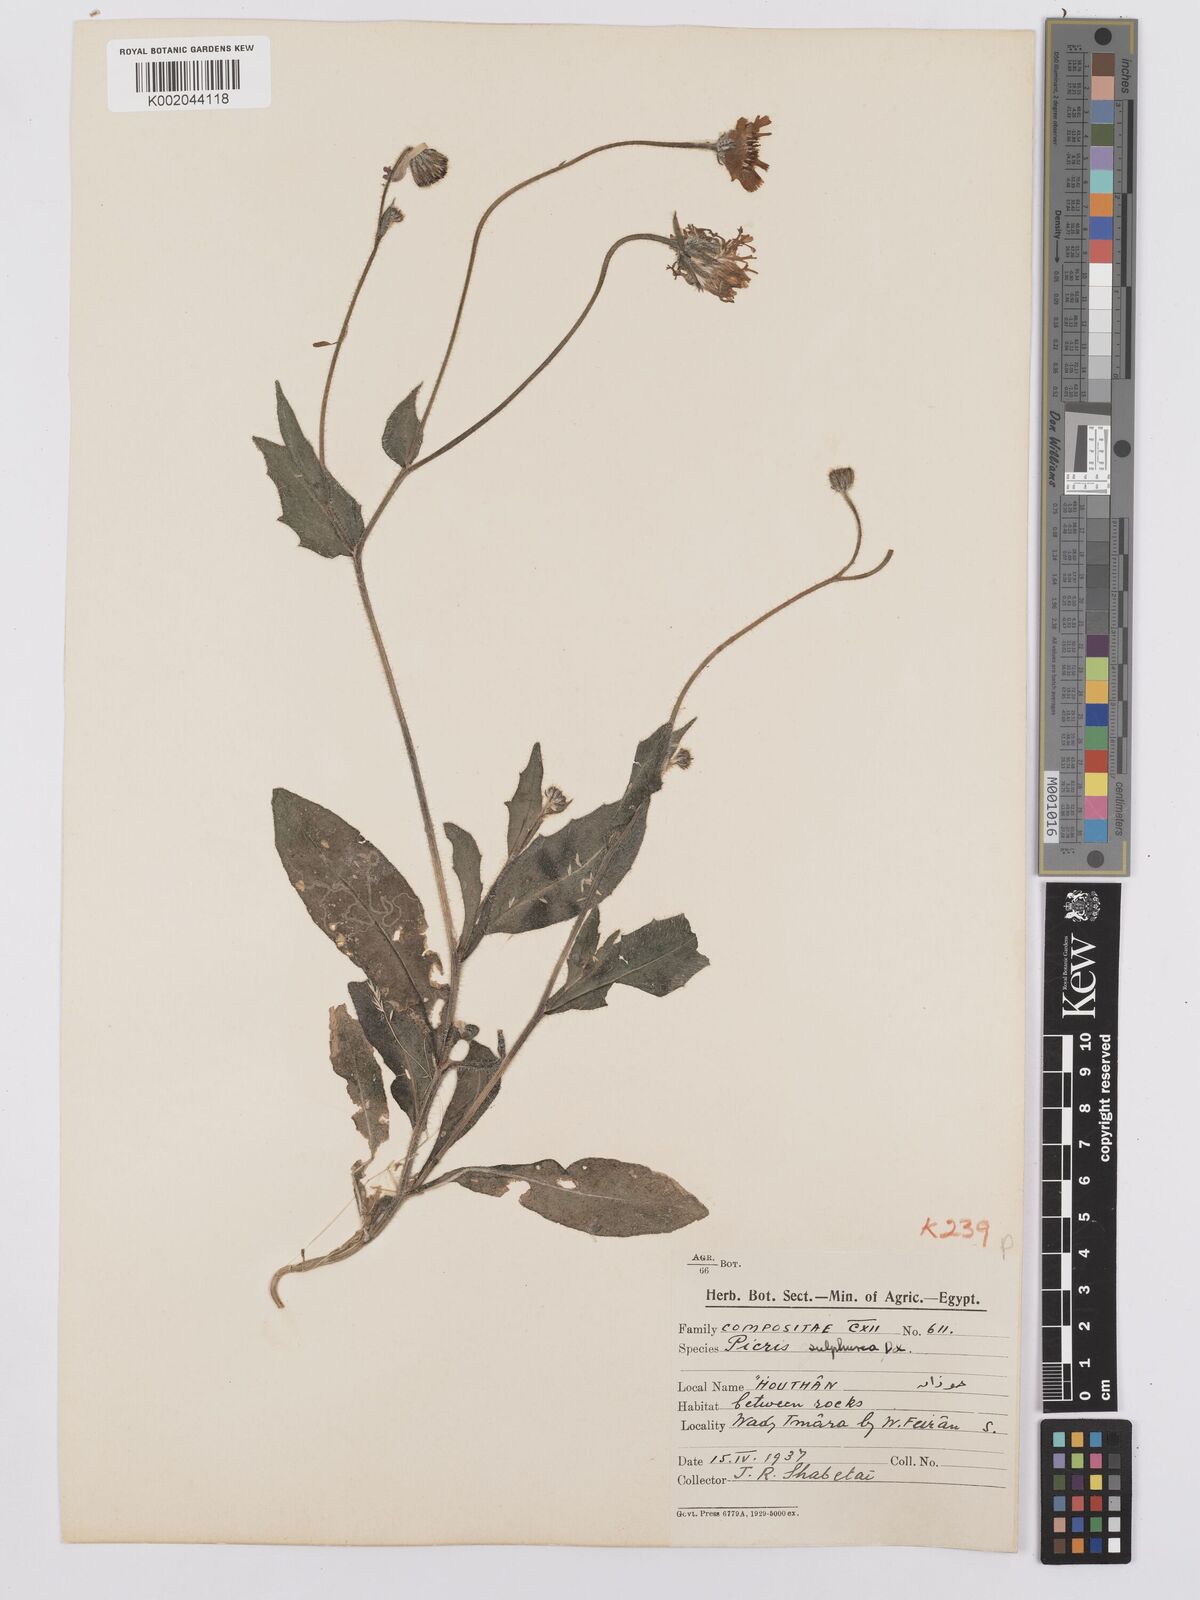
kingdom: Plantae
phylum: Tracheophyta
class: Magnoliopsida
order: Asterales
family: Asteraceae
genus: Picris
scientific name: Picris sulphurea
